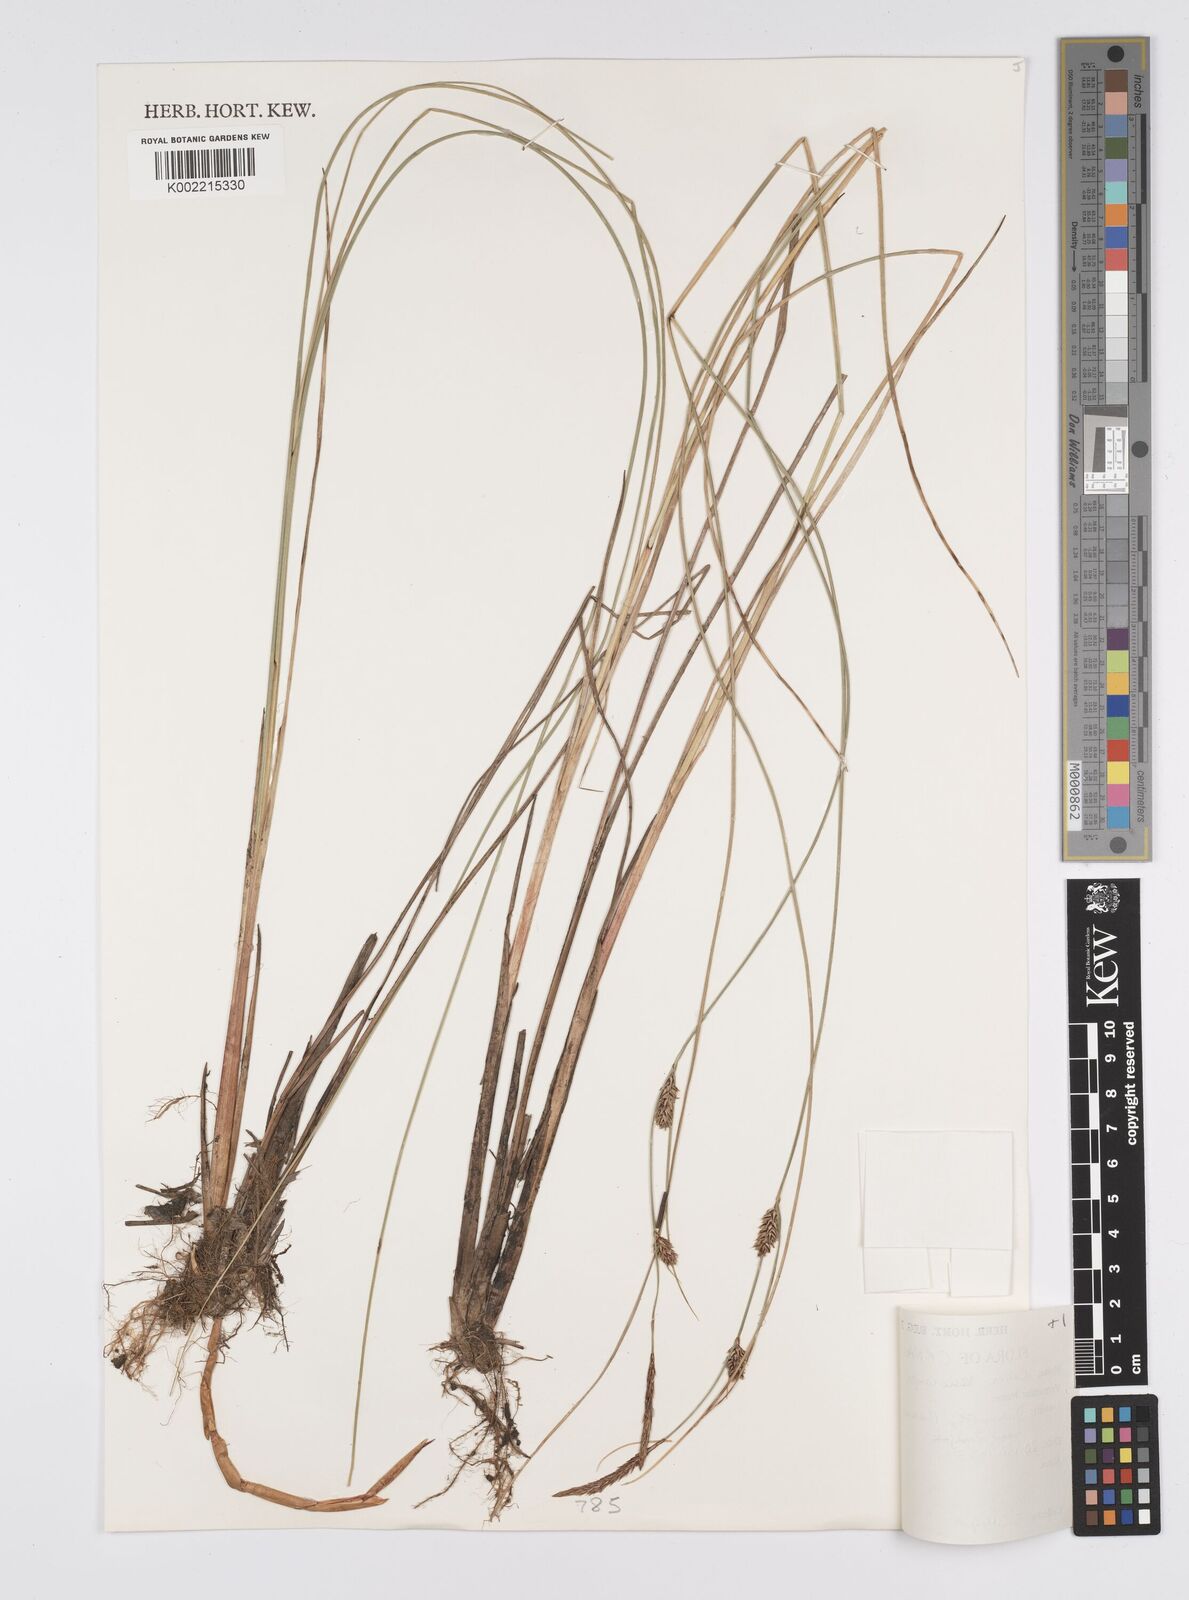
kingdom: Plantae
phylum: Tracheophyta
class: Liliopsida
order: Poales
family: Cyperaceae
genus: Carex
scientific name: Carex lasiocarpa
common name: Slender sedge
